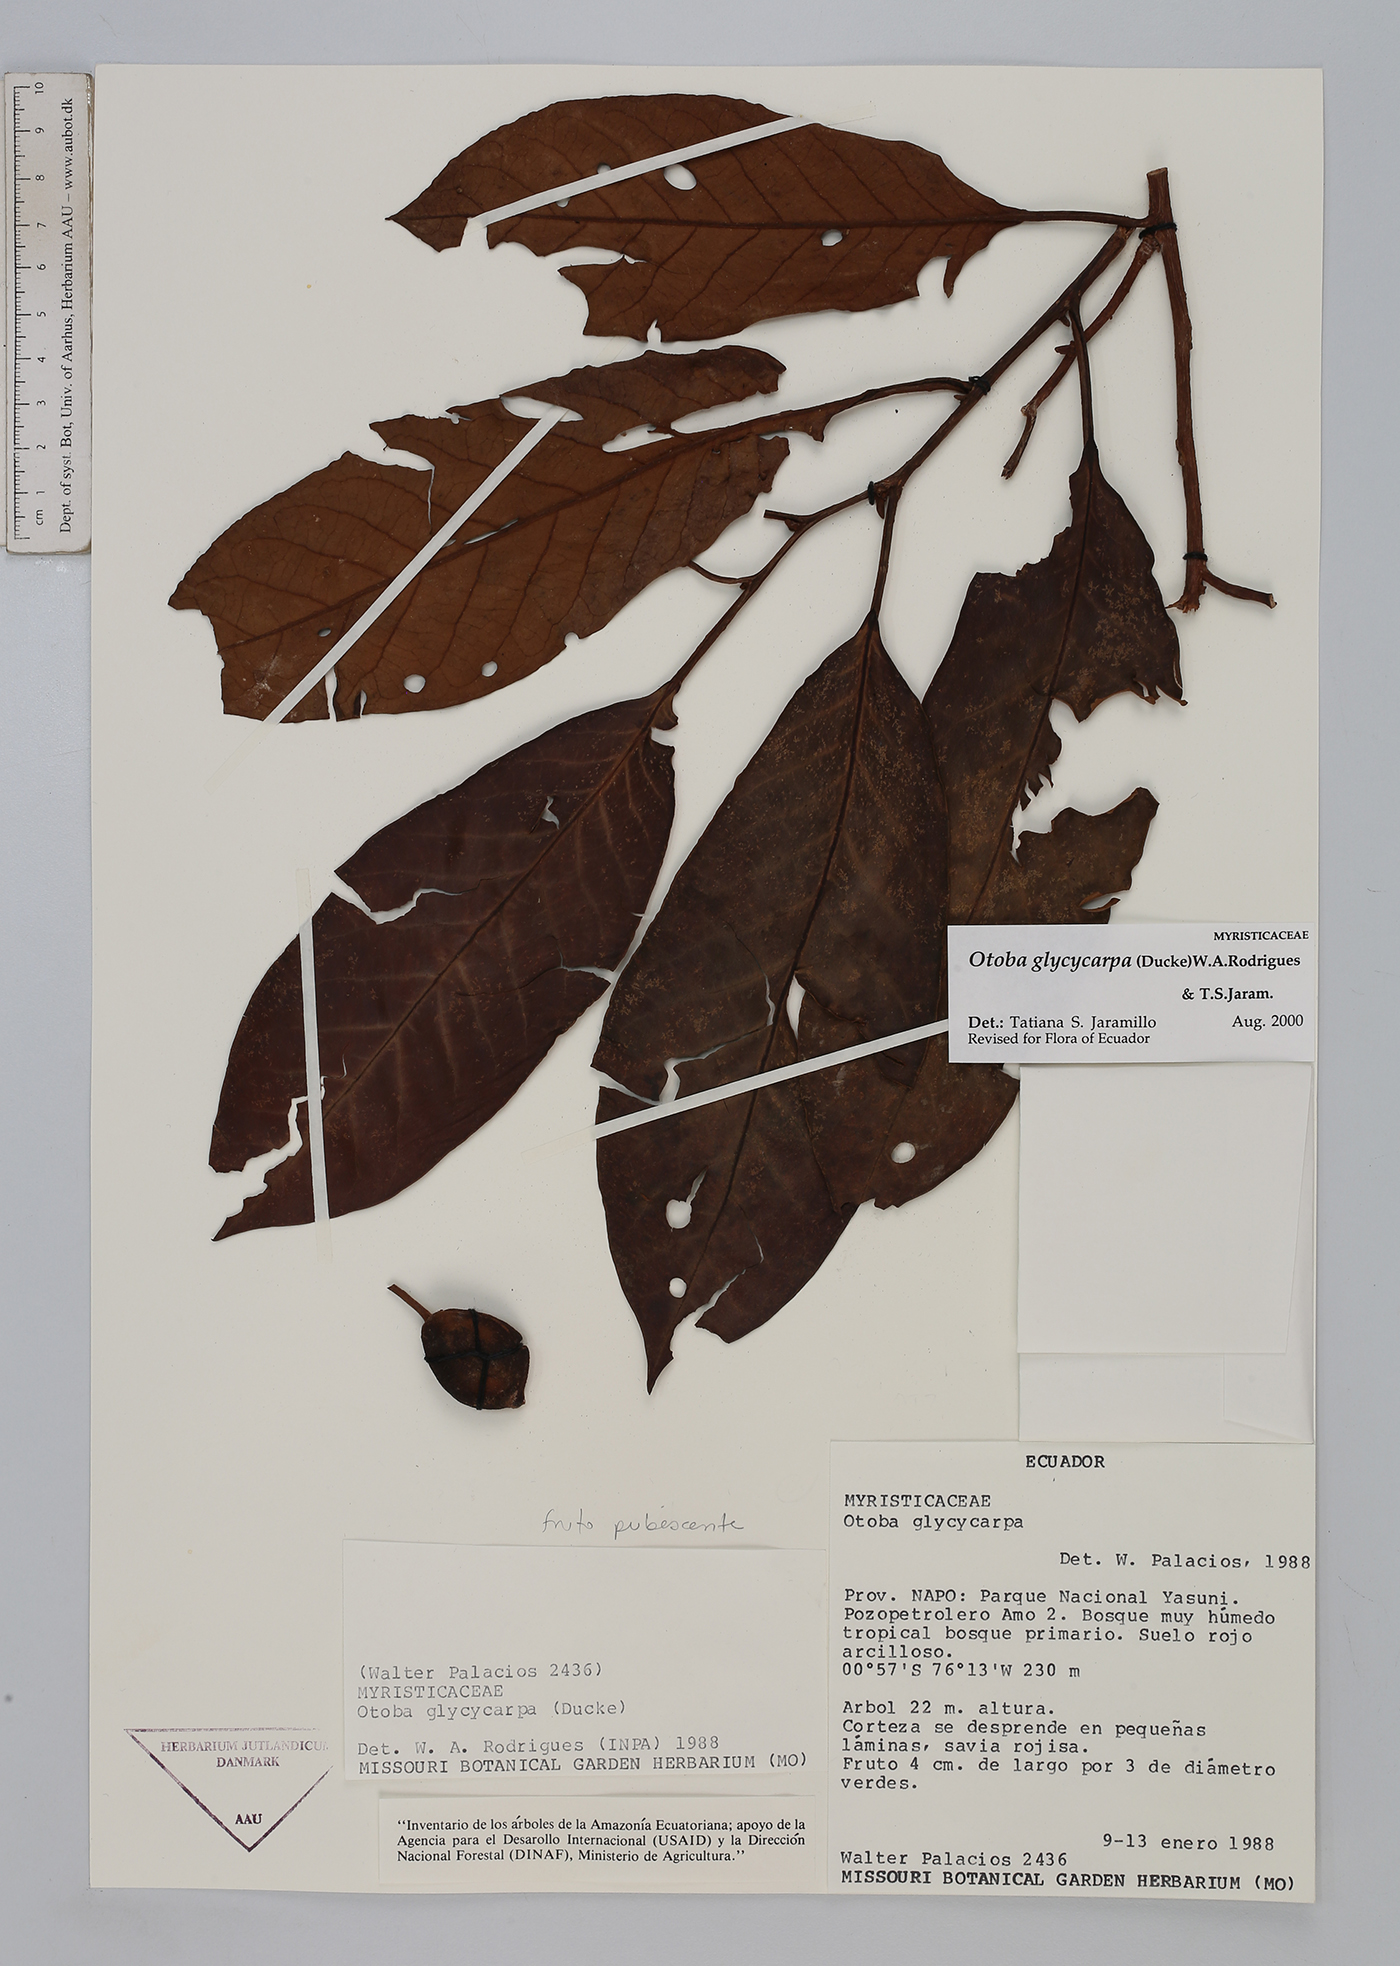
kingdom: Plantae
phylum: Tracheophyta
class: Magnoliopsida
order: Magnoliales
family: Myristicaceae
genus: Otoba
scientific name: Otoba glycycarpa
